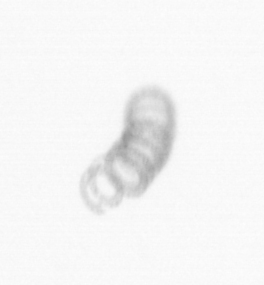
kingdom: Chromista
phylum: Ochrophyta
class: Bacillariophyceae
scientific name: Bacillariophyceae
